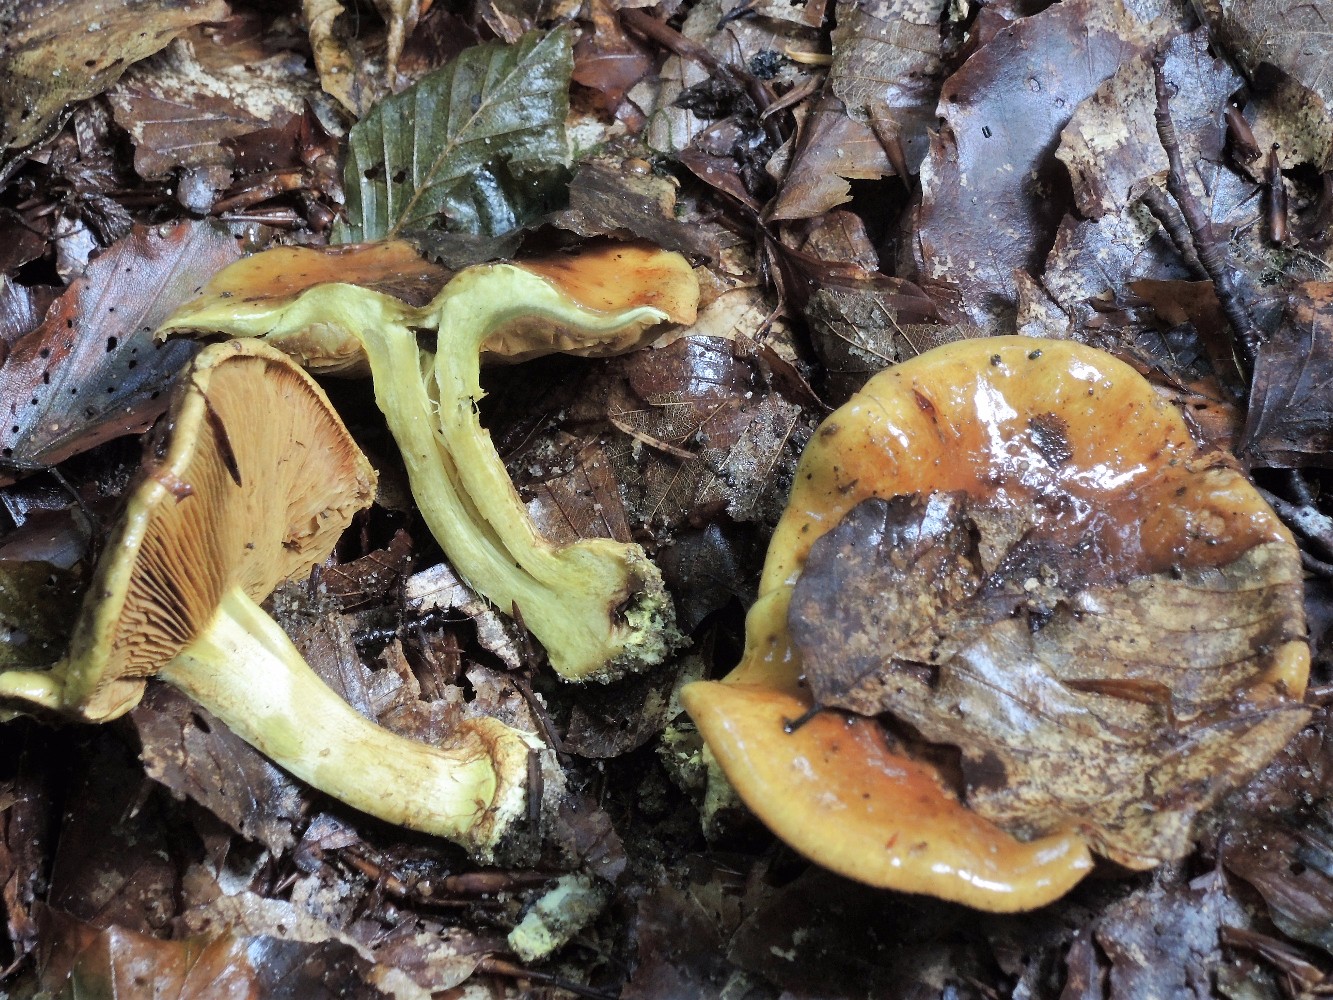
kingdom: Fungi
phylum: Basidiomycota
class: Agaricomycetes
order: Agaricales
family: Cortinariaceae
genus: Calonarius
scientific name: Calonarius citrinus
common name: citrongul slørhat
